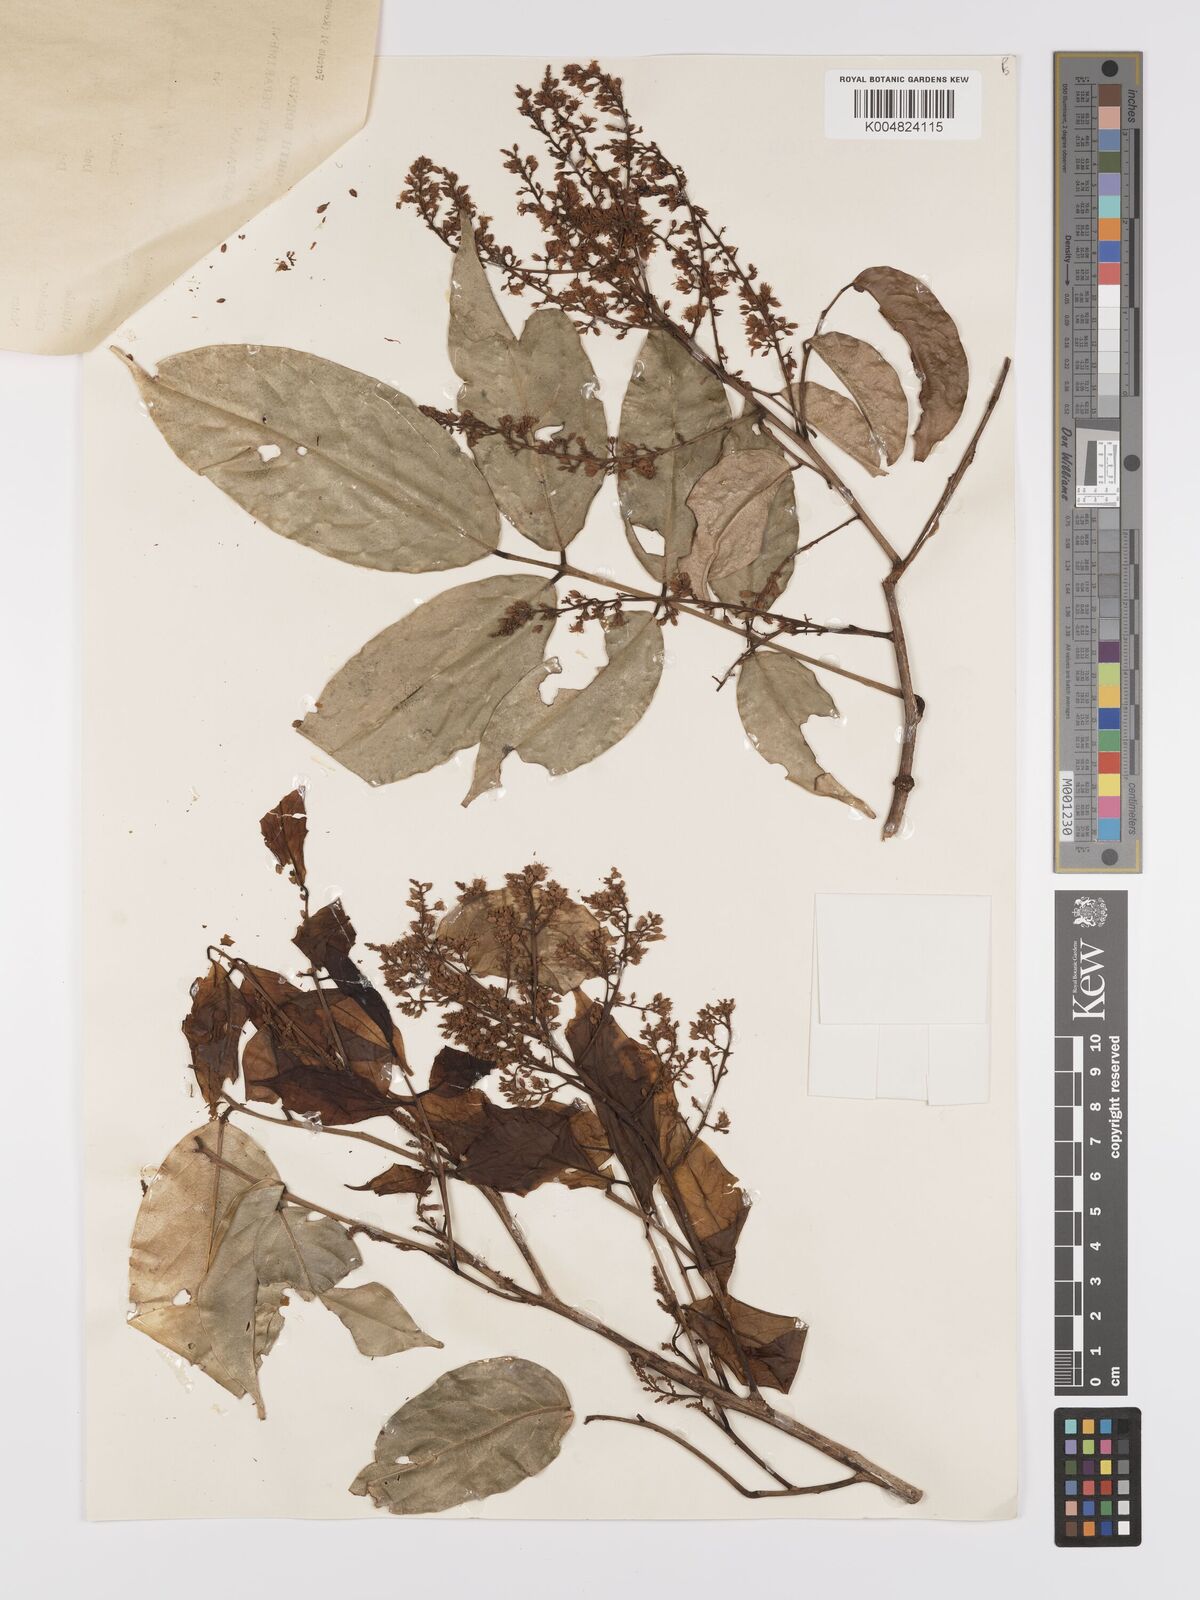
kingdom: Plantae
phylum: Tracheophyta
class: Magnoliopsida
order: Oxalidales
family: Connaraceae
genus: Connarus
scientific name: Connarus semidecandrus
